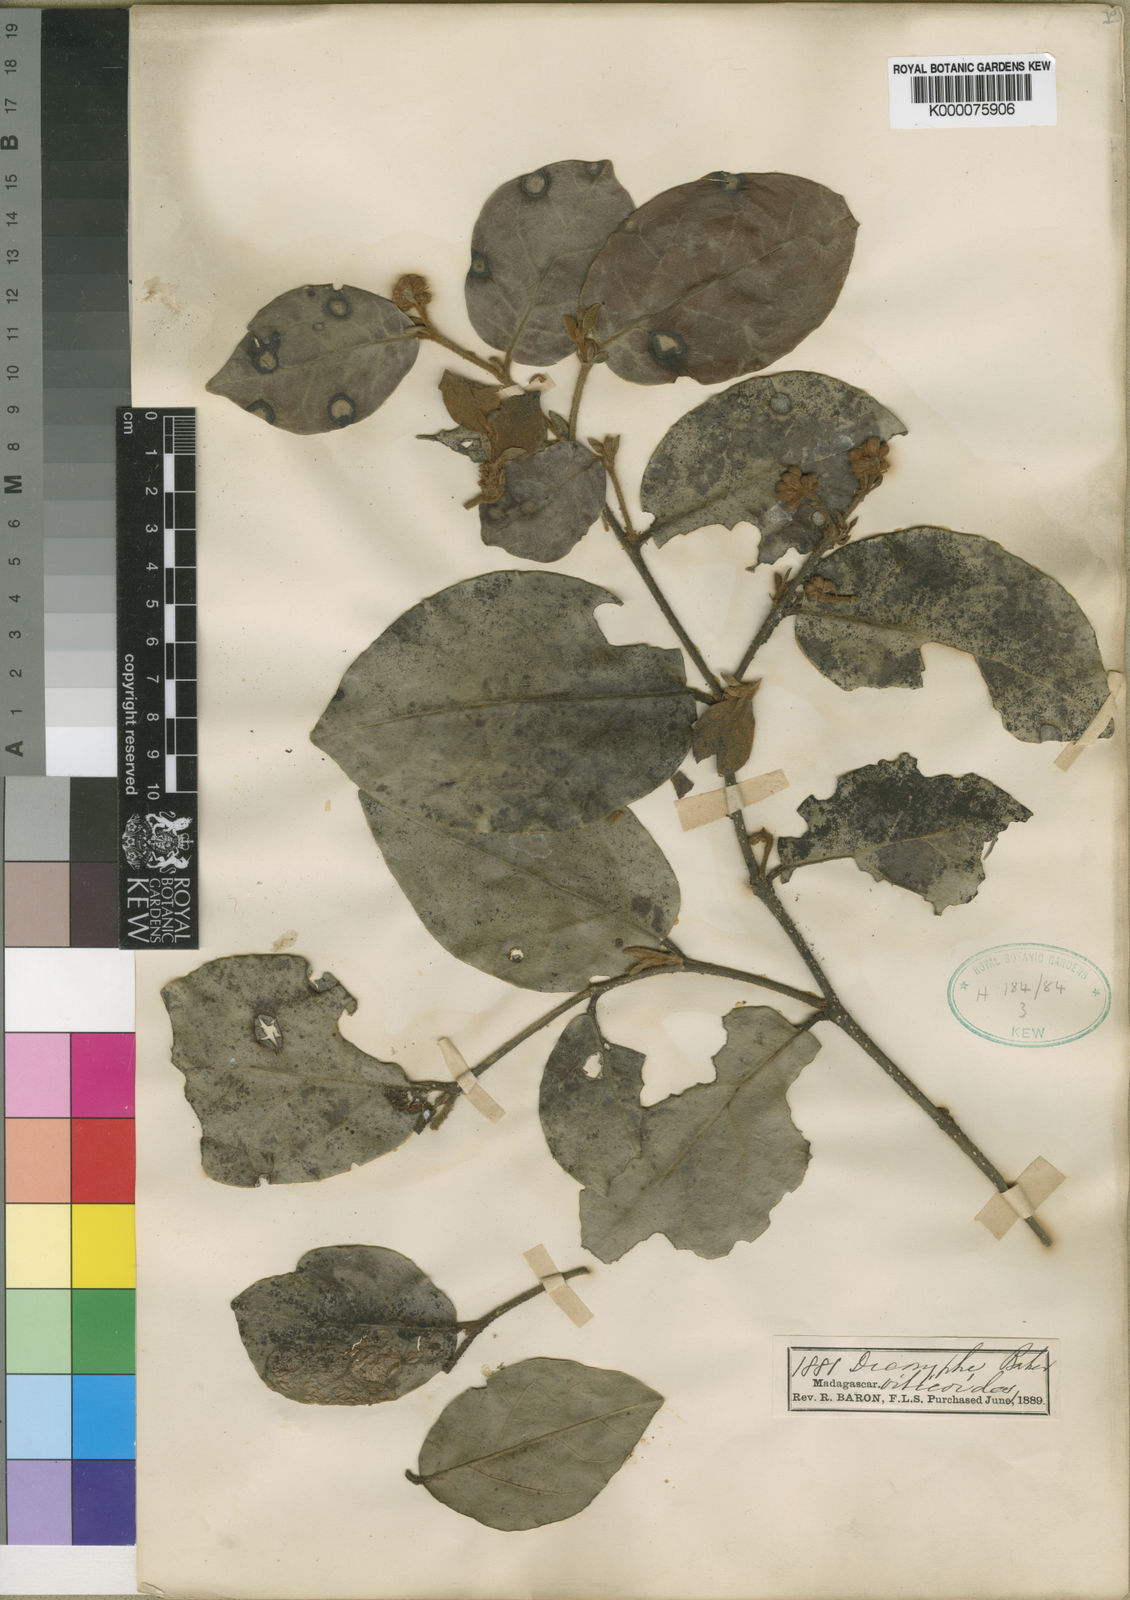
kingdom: Plantae
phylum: Tracheophyta
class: Magnoliopsida
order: Saxifragales
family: Hamamelidaceae
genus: Dicoryphe
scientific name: Dicoryphe buddleoides
